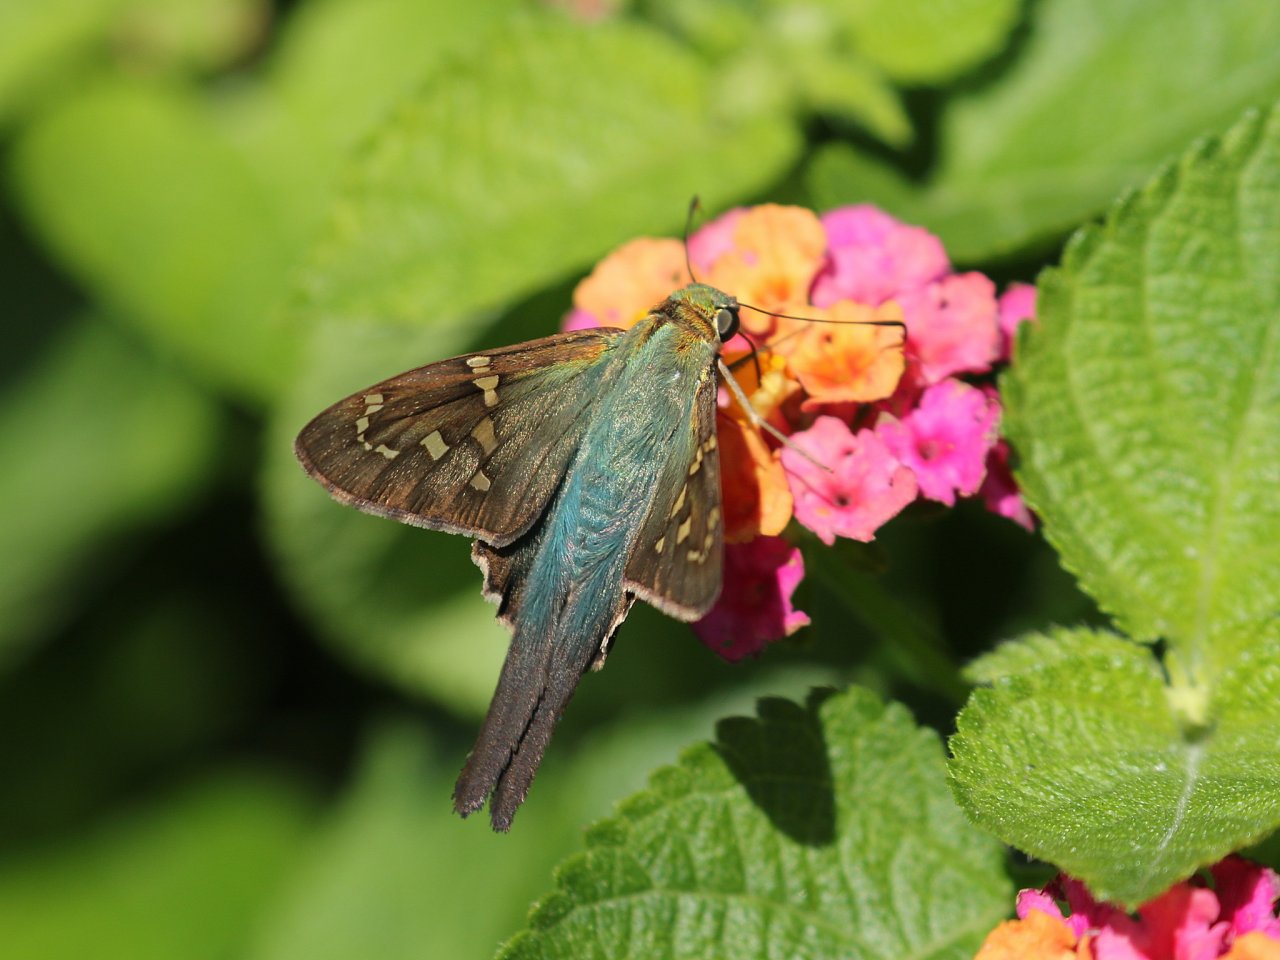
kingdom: Animalia
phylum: Arthropoda
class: Insecta
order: Lepidoptera
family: Hesperiidae
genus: Urbanus
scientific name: Urbanus proteus
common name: Long-tailed Skipper
